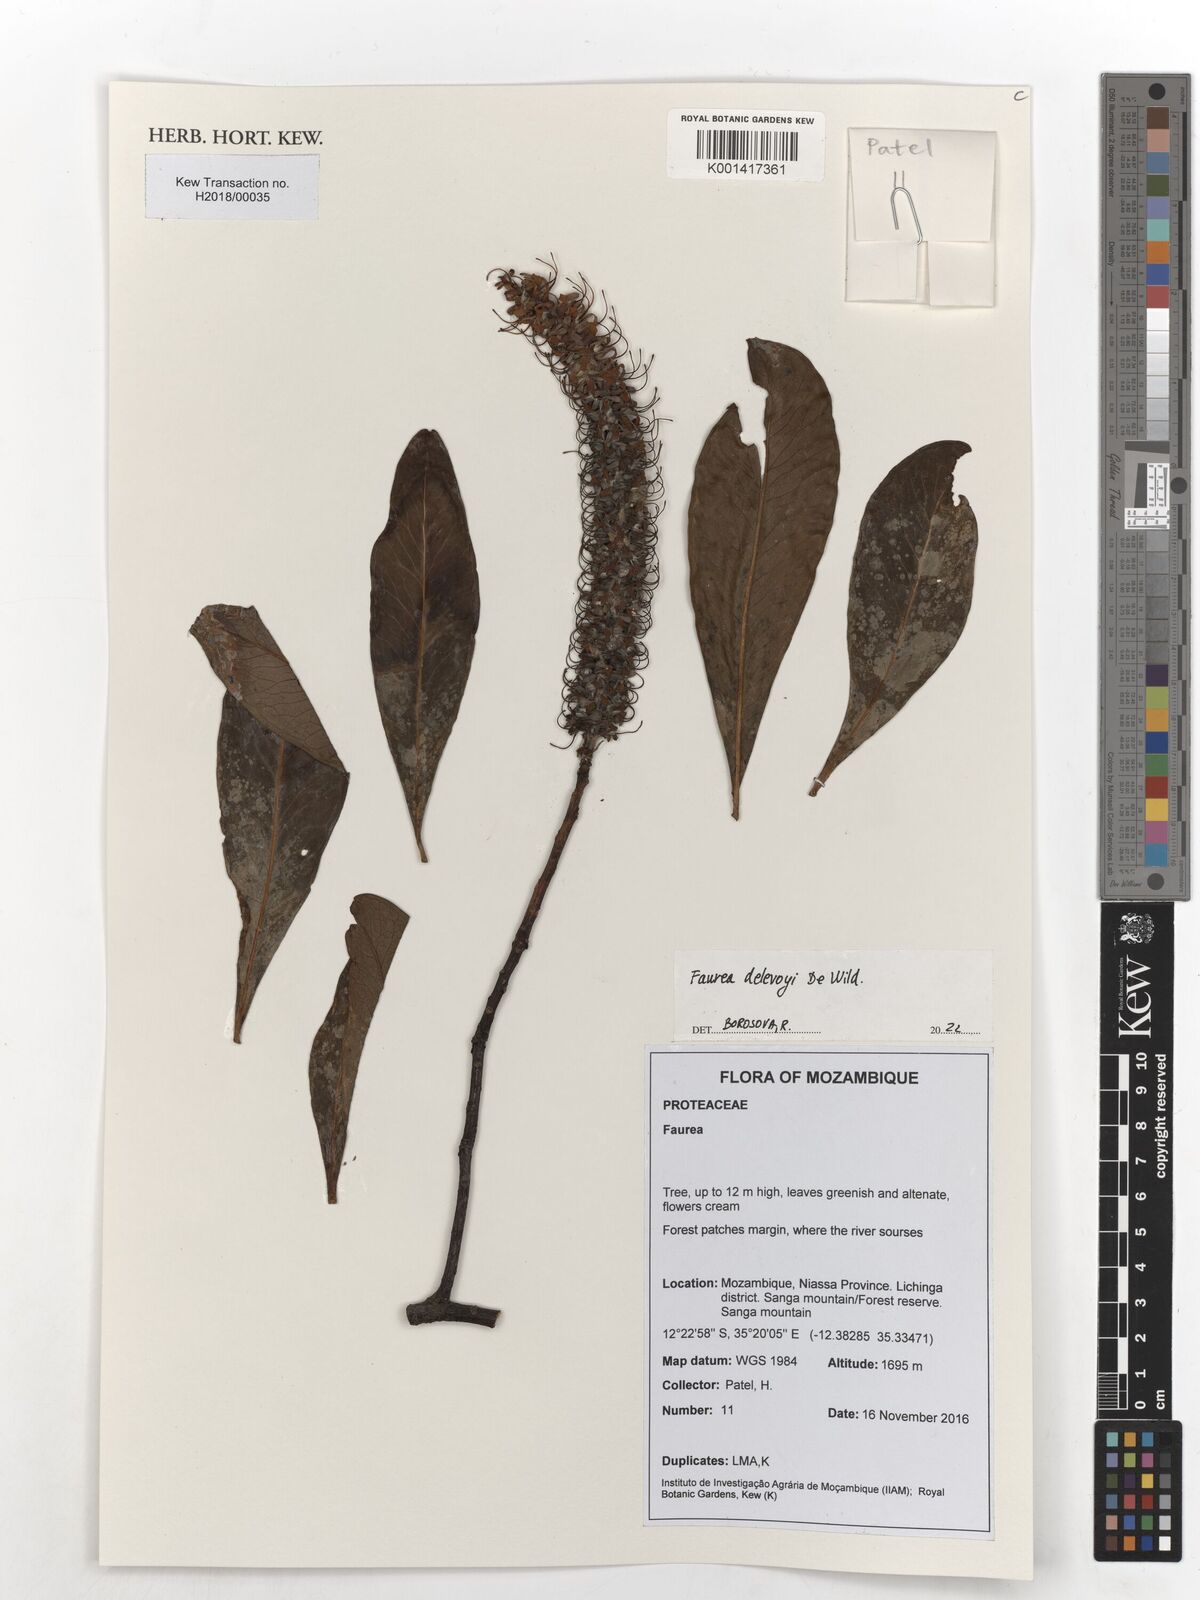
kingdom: Plantae
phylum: Tracheophyta
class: Magnoliopsida
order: Proteales
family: Proteaceae
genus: Faurea
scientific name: Faurea delevoyi
